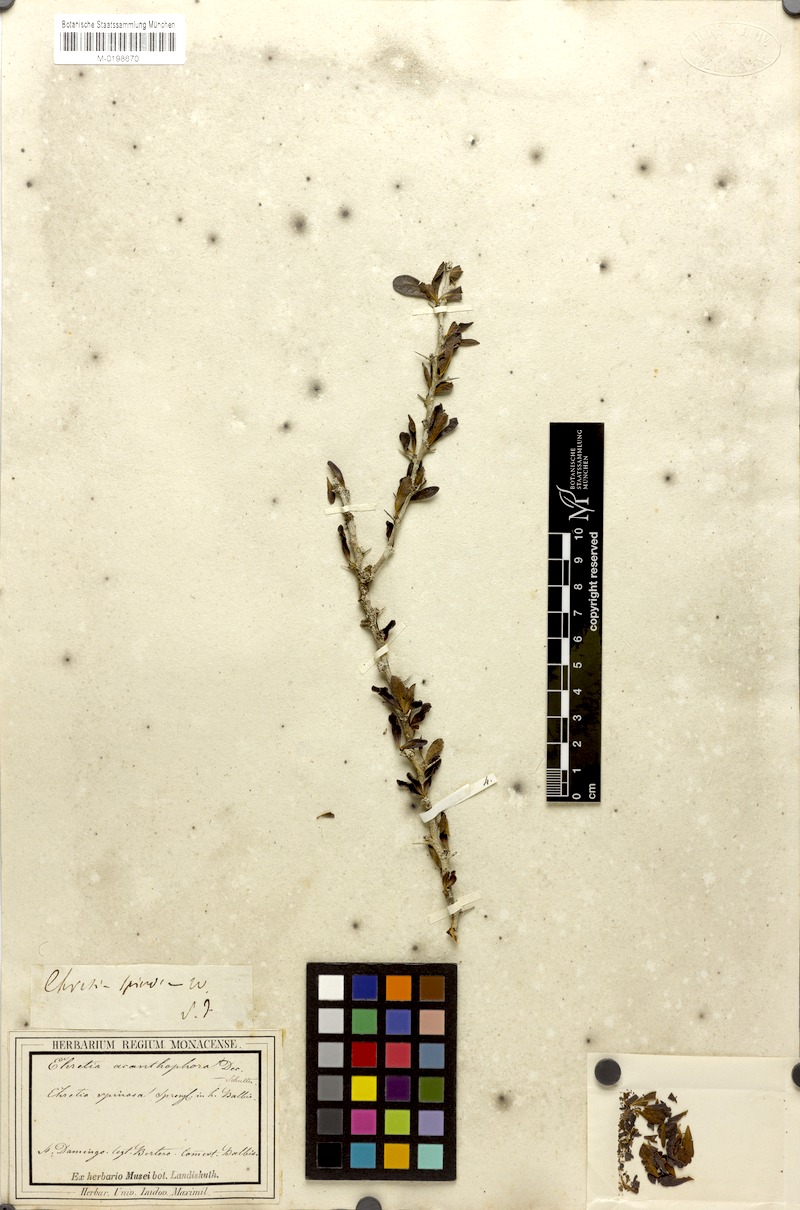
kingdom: Plantae
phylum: Tracheophyta
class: Magnoliopsida
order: Boraginales
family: Ehretiaceae
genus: Rochefortia
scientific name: Rochefortia spinosa
